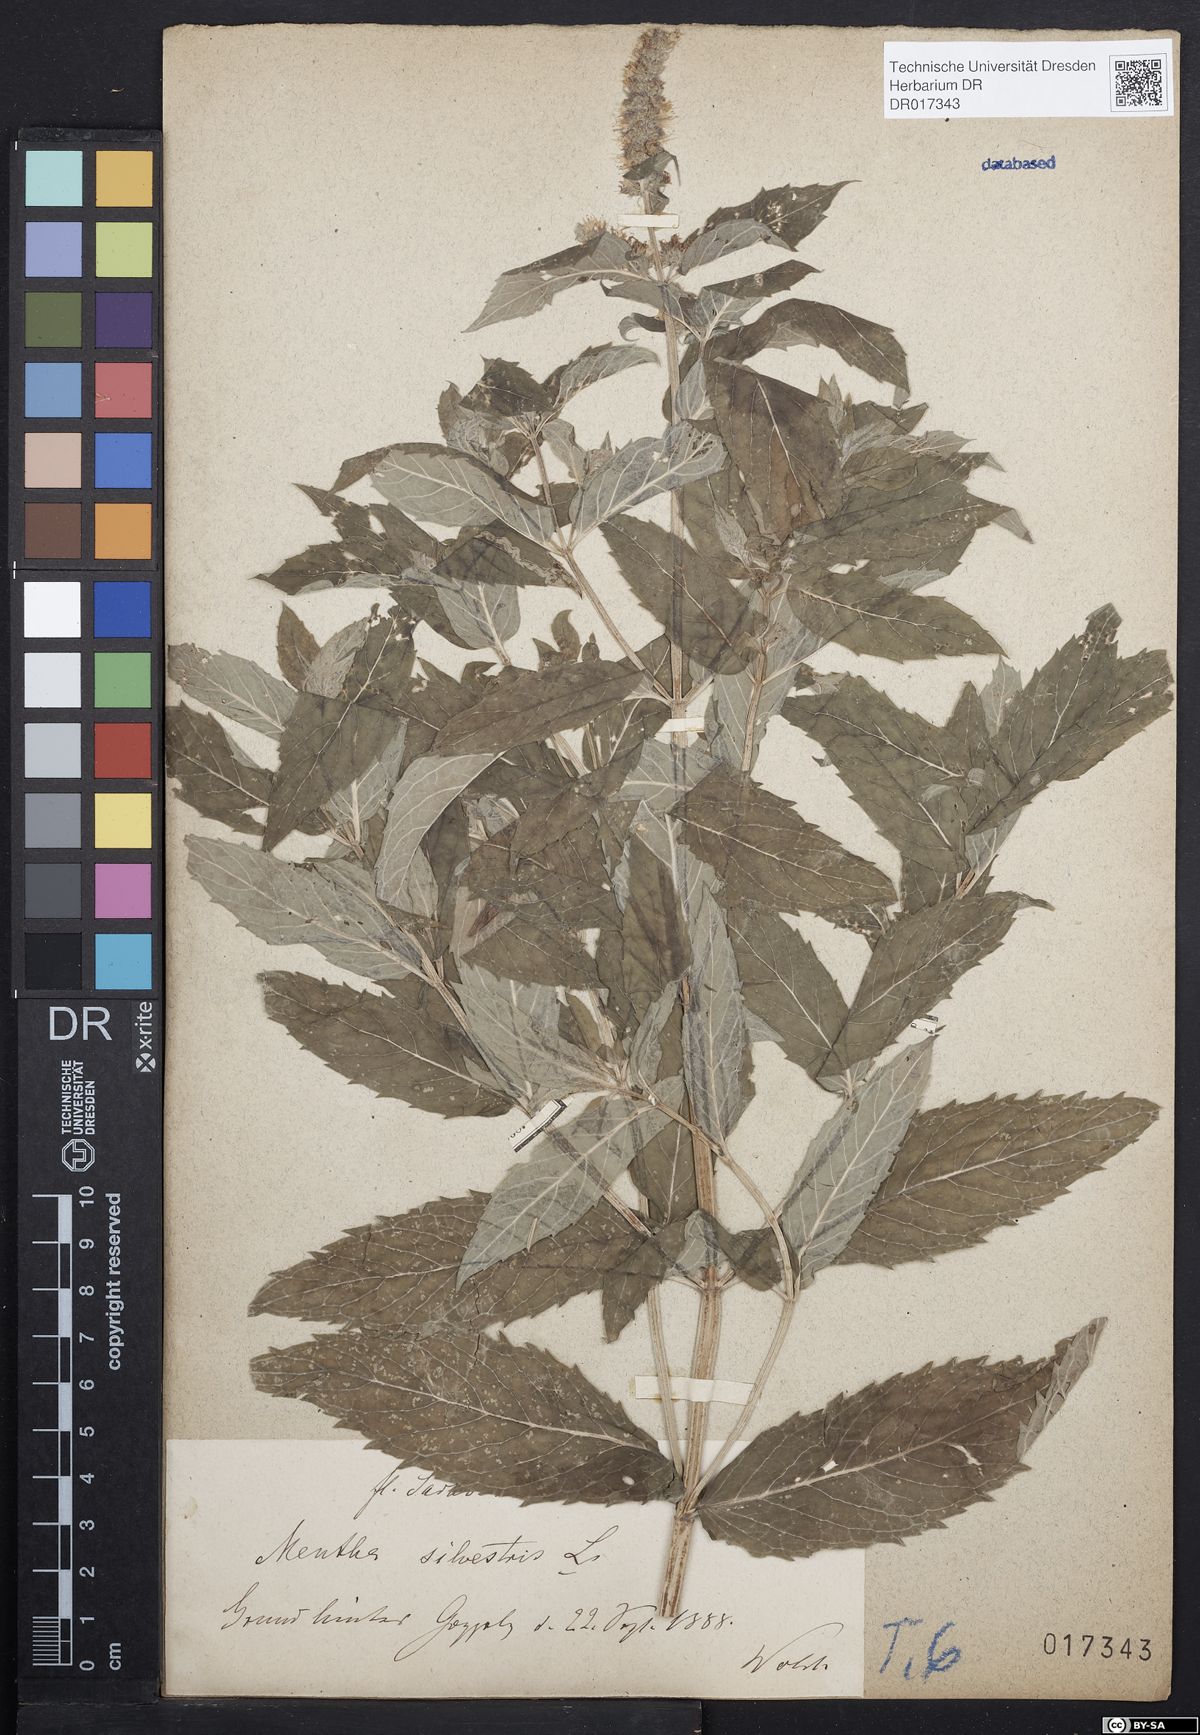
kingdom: Plantae
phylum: Tracheophyta
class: Magnoliopsida
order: Lamiales
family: Lamiaceae
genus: Mentha
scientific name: Mentha longifolia
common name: Horse mint
